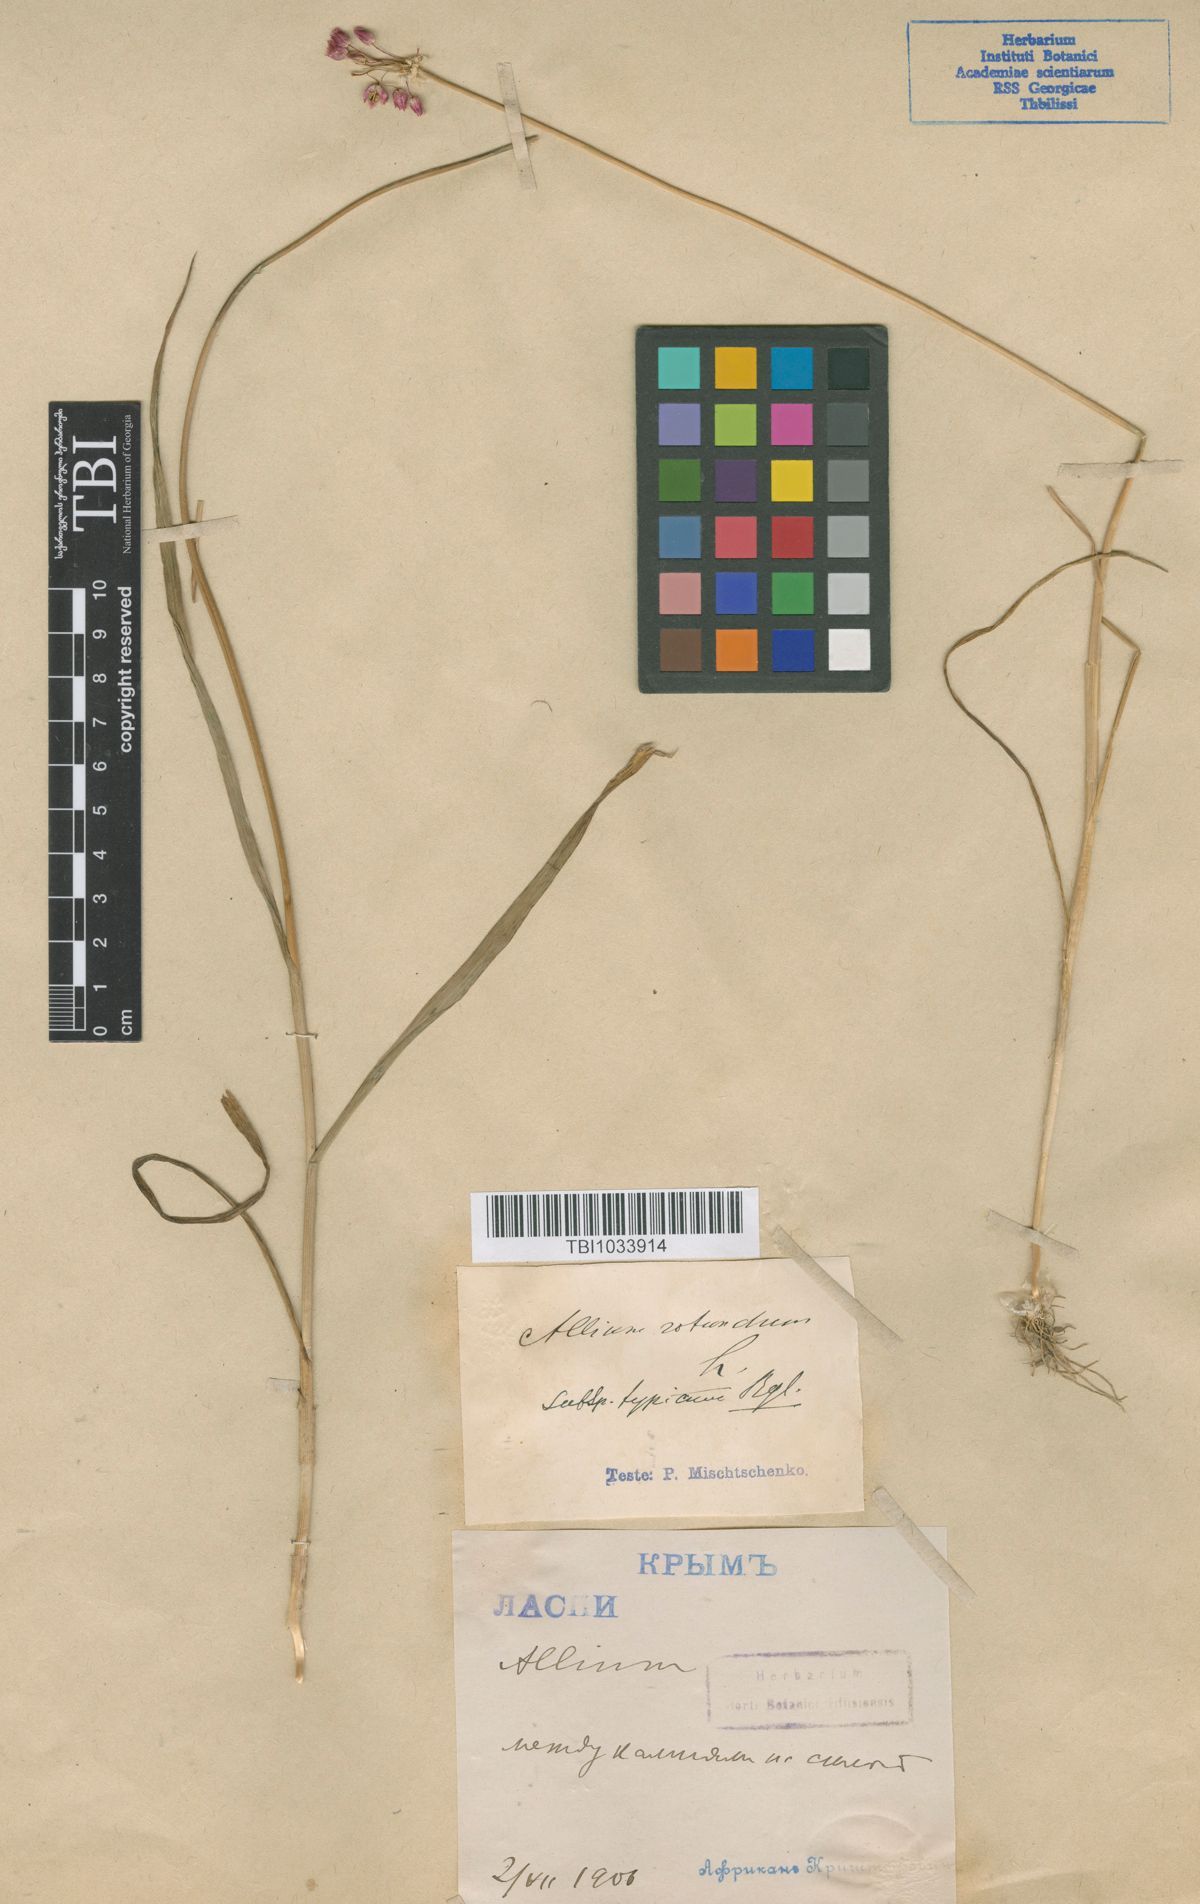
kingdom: Plantae
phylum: Tracheophyta
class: Liliopsida
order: Asparagales
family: Amaryllidaceae
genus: Allium
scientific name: Allium rotundum
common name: Sand leek
